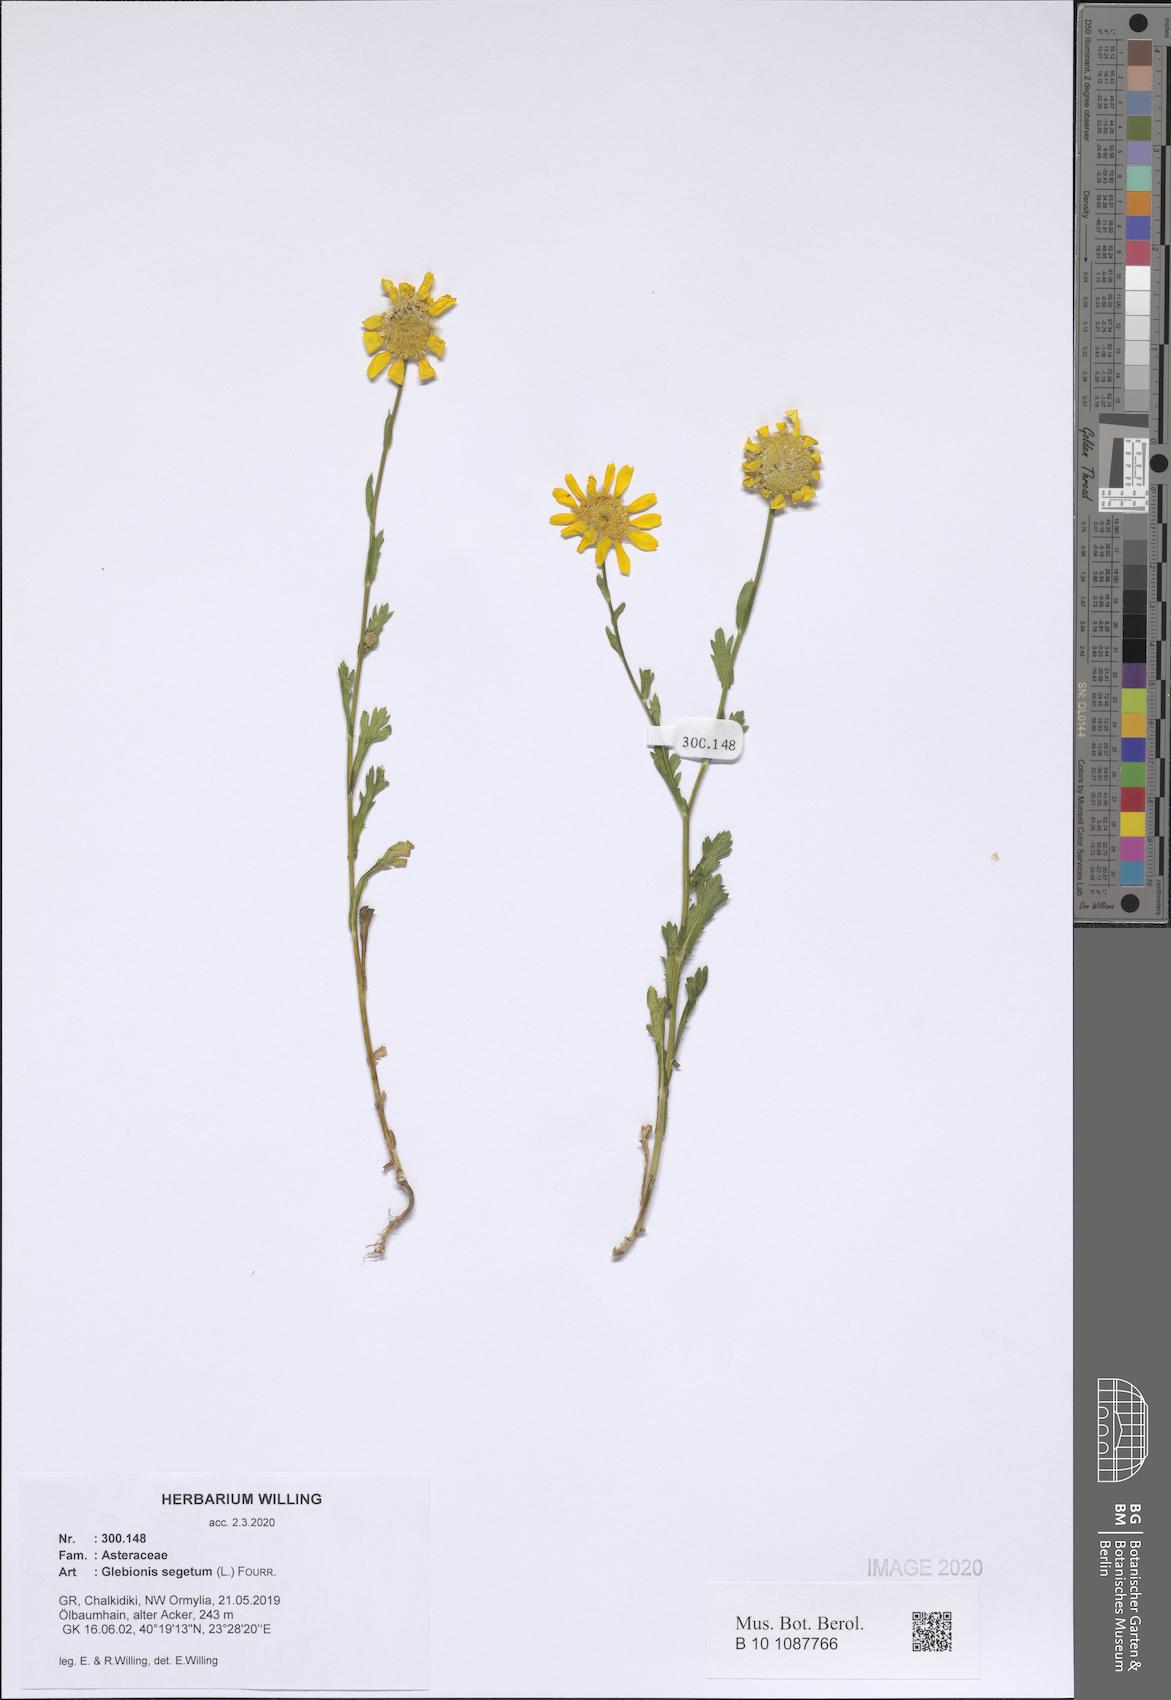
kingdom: Plantae
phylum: Tracheophyta
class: Magnoliopsida
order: Asterales
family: Asteraceae
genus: Glebionis
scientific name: Glebionis segetum
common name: Corndaisy
